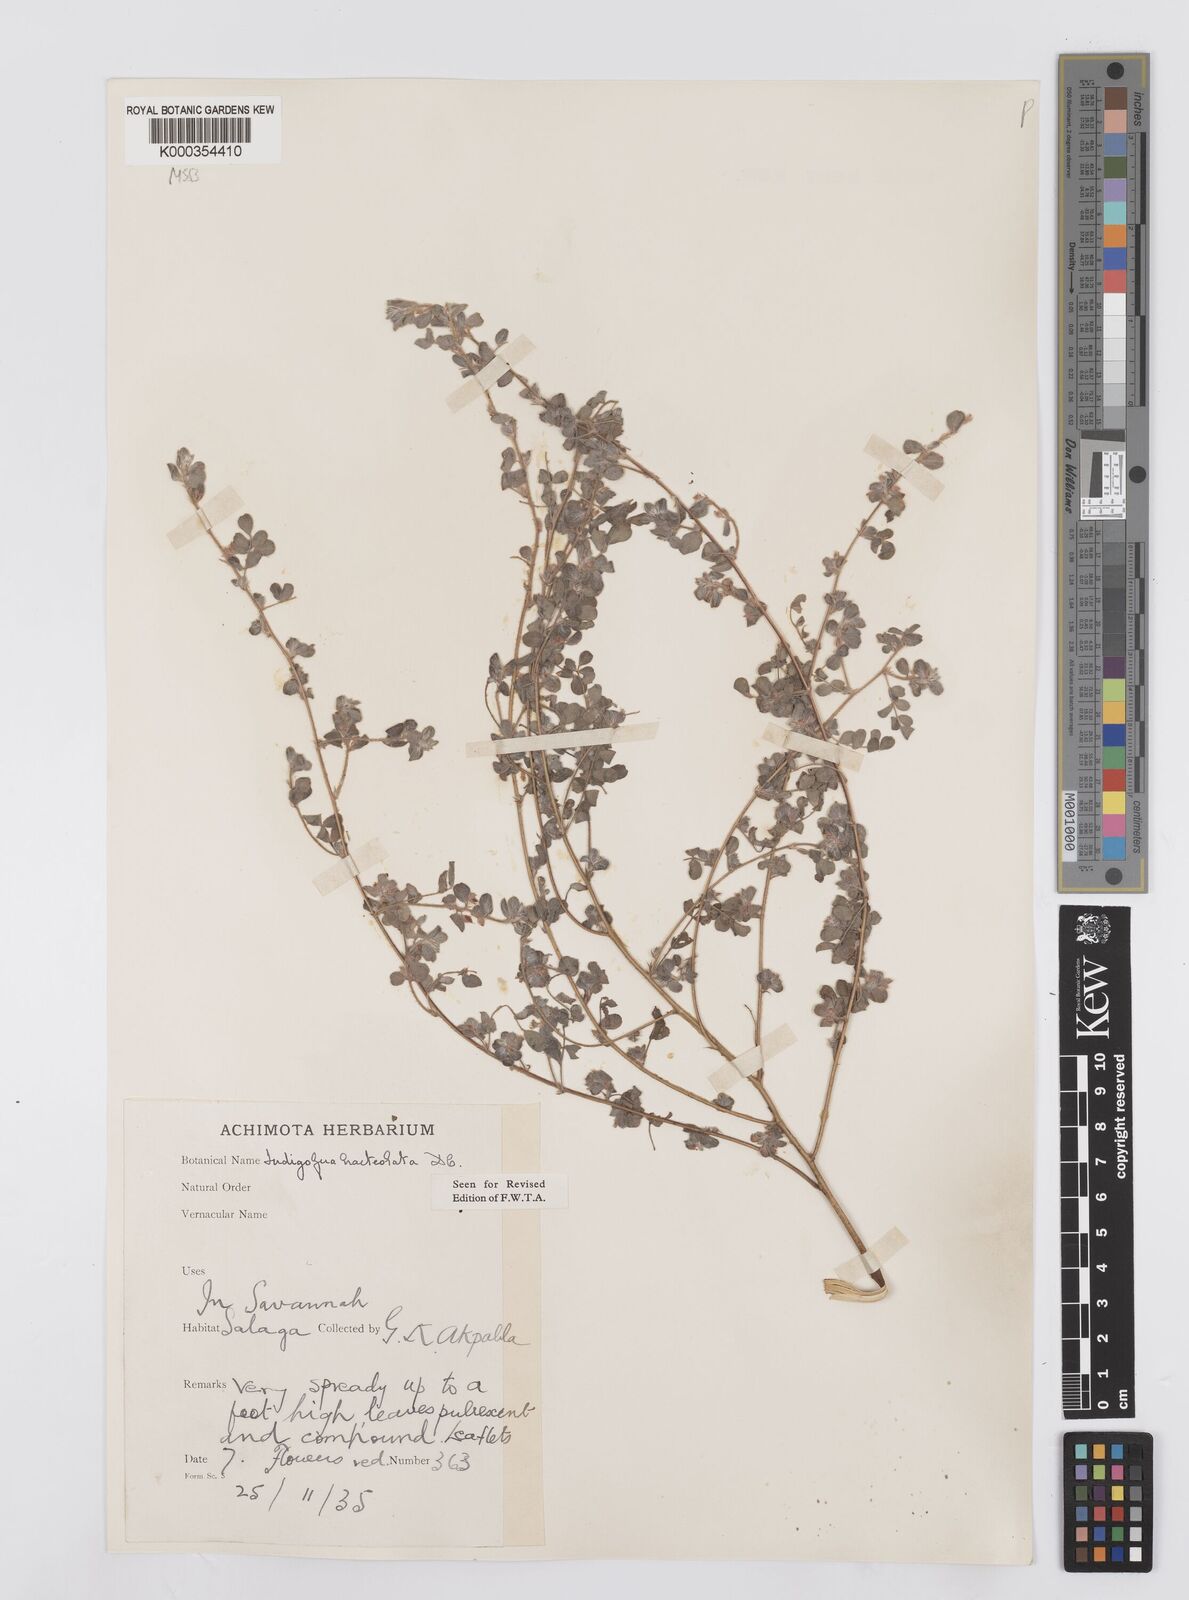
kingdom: Plantae
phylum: Tracheophyta
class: Magnoliopsida
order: Fabales
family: Fabaceae
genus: Indigofera
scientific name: Indigofera bracteolata
